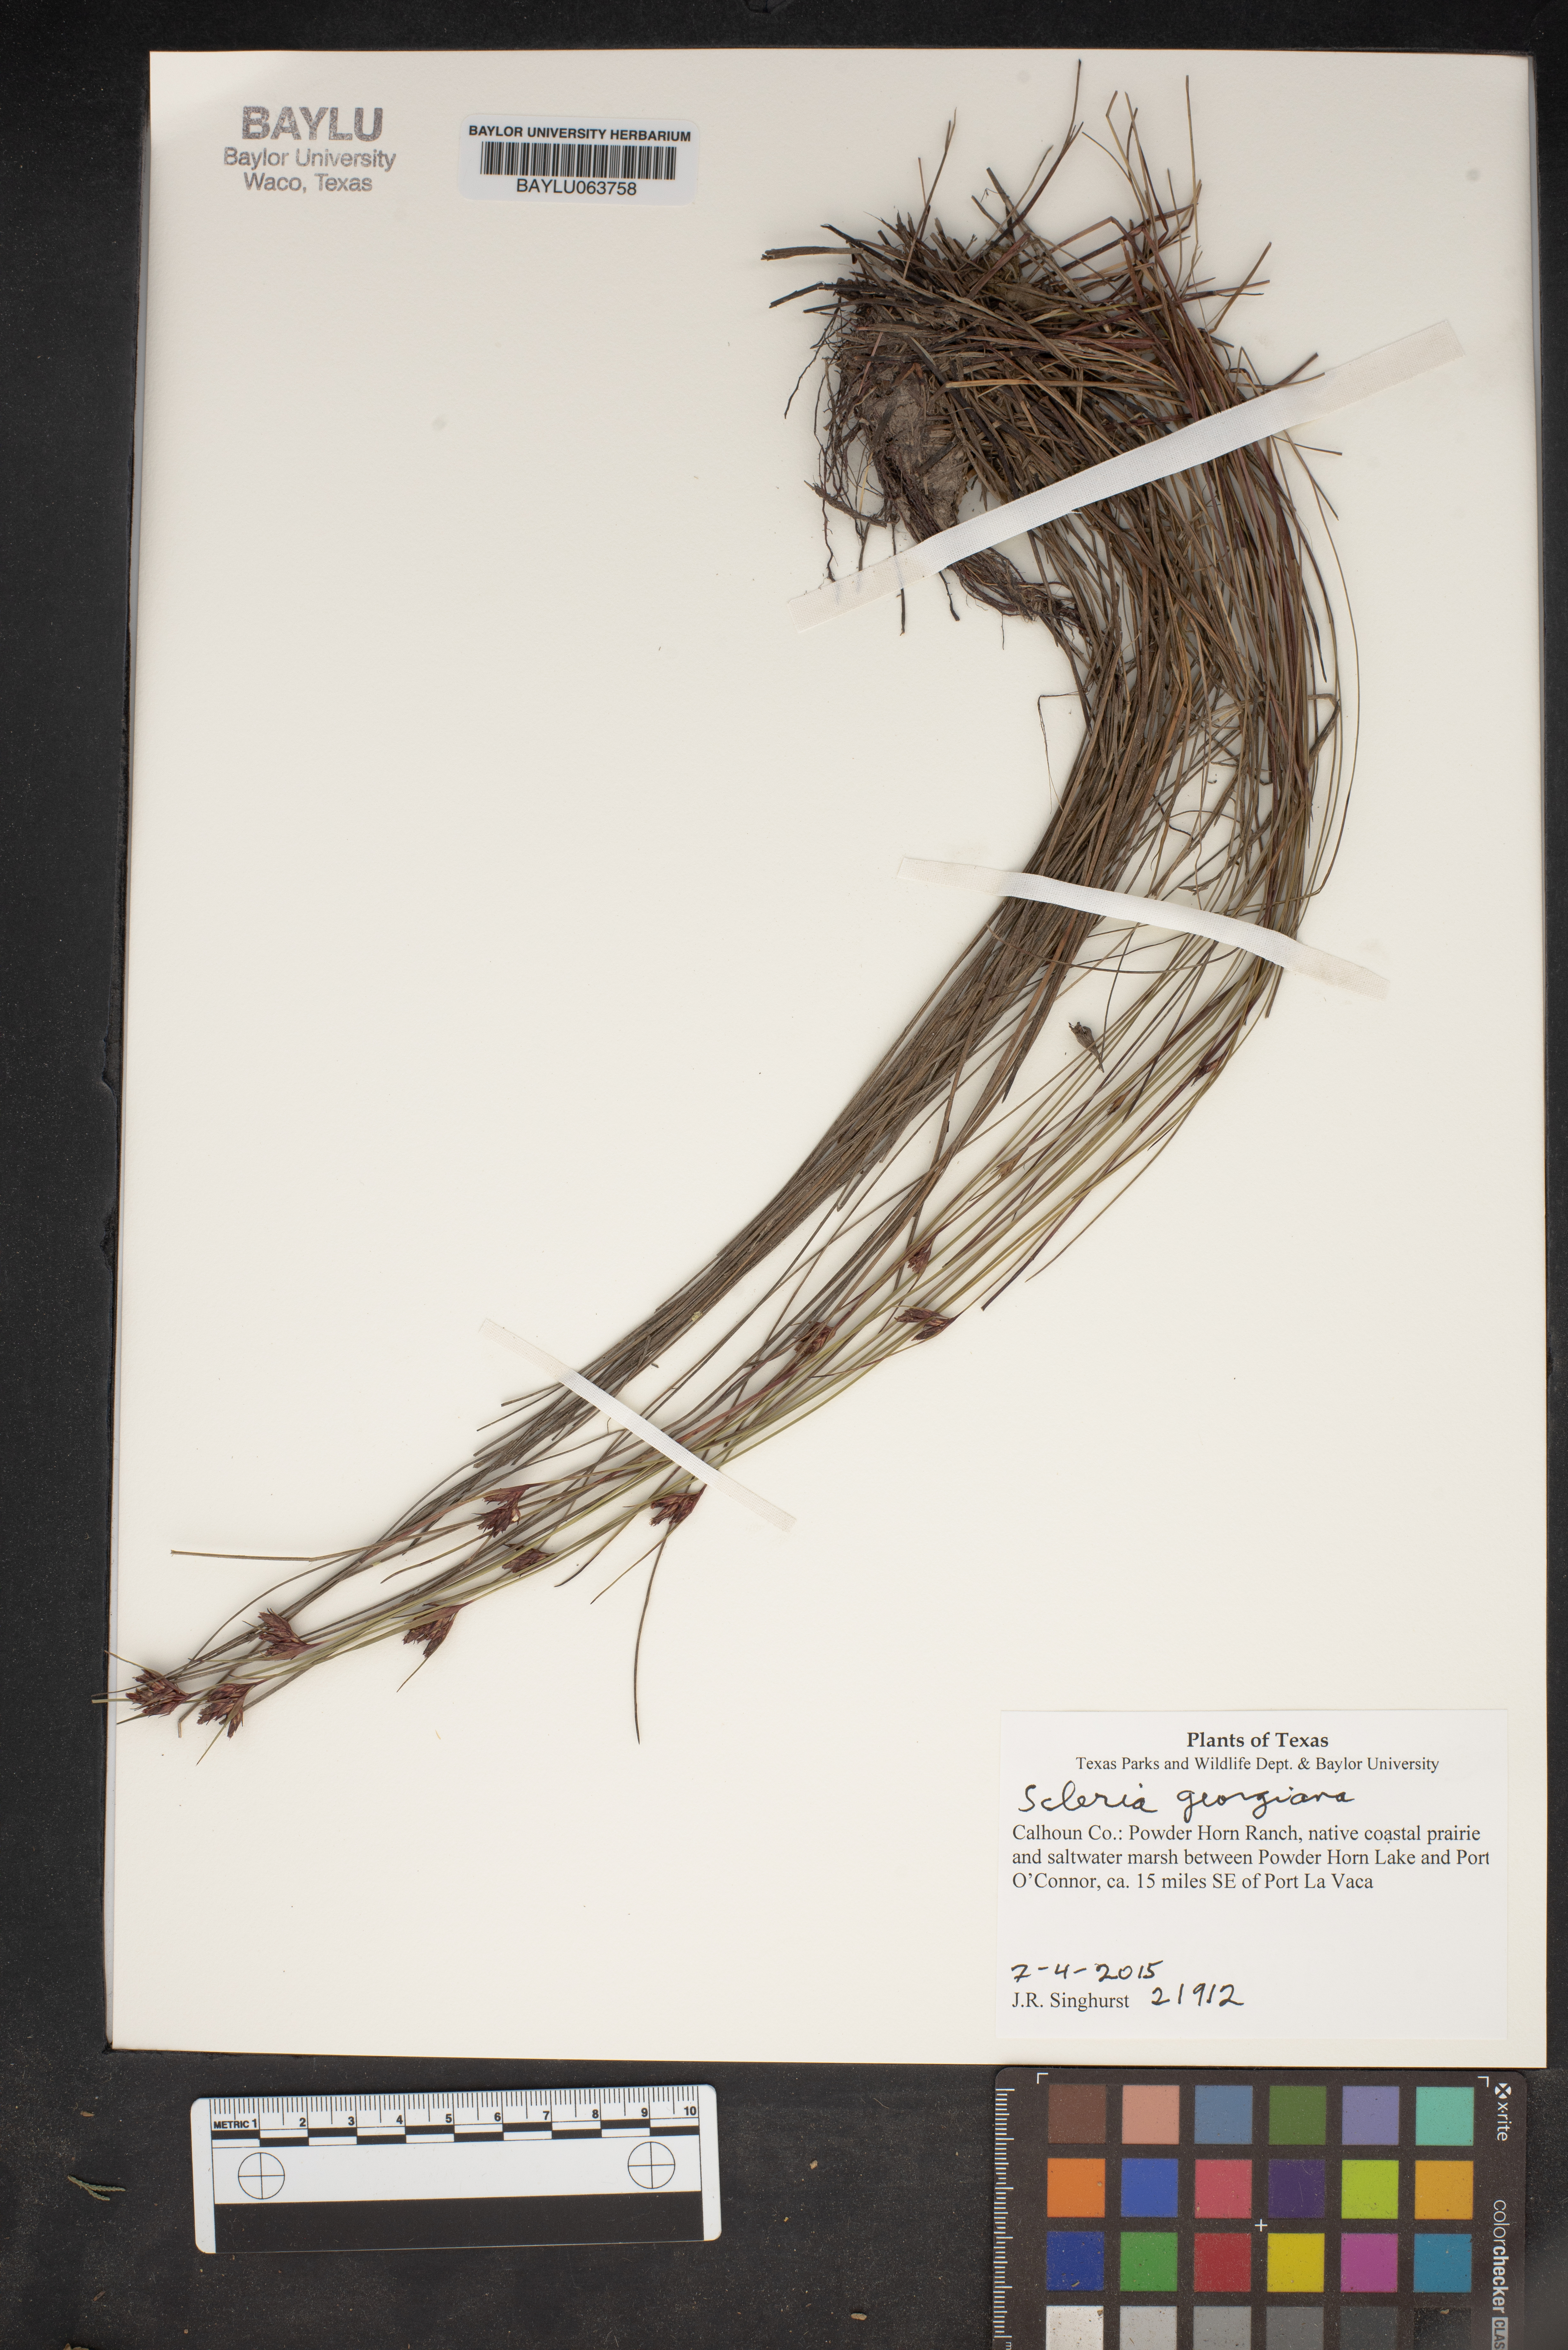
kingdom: Plantae
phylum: Tracheophyta
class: Liliopsida
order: Poales
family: Cyperaceae
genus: Scleria
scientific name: Scleria georgiana
